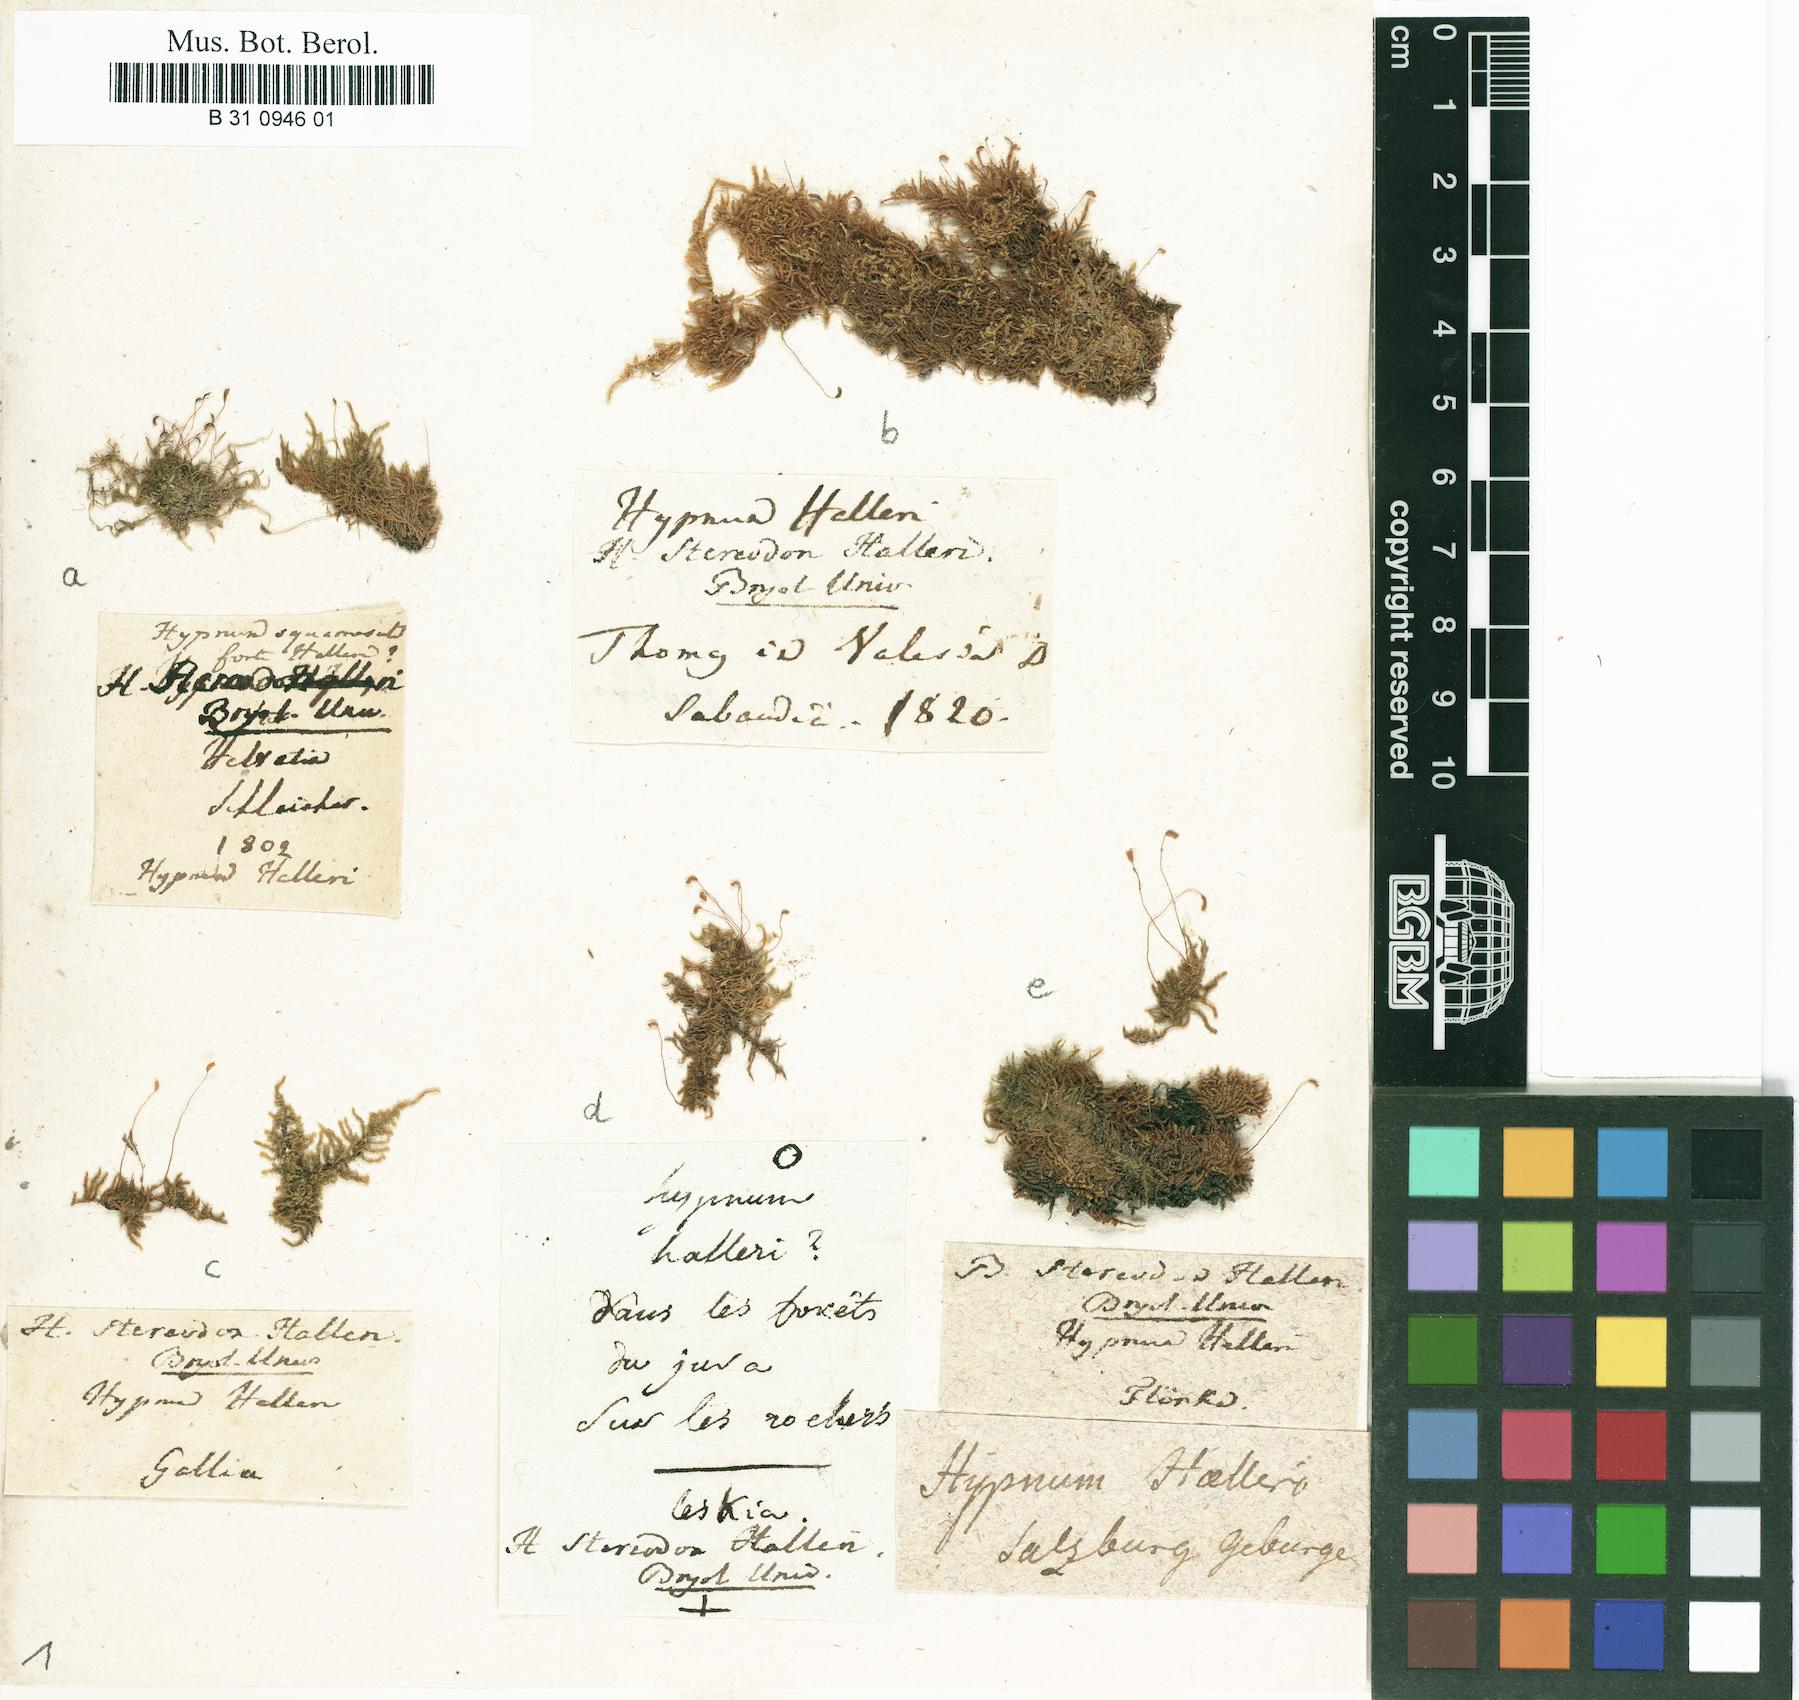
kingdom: Plantae
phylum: Bryophyta
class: Bryopsida
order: Hypnales
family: Amblystegiaceae
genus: Campylophyllum
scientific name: Campylophyllum halleri
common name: Haller's fine wet moss
